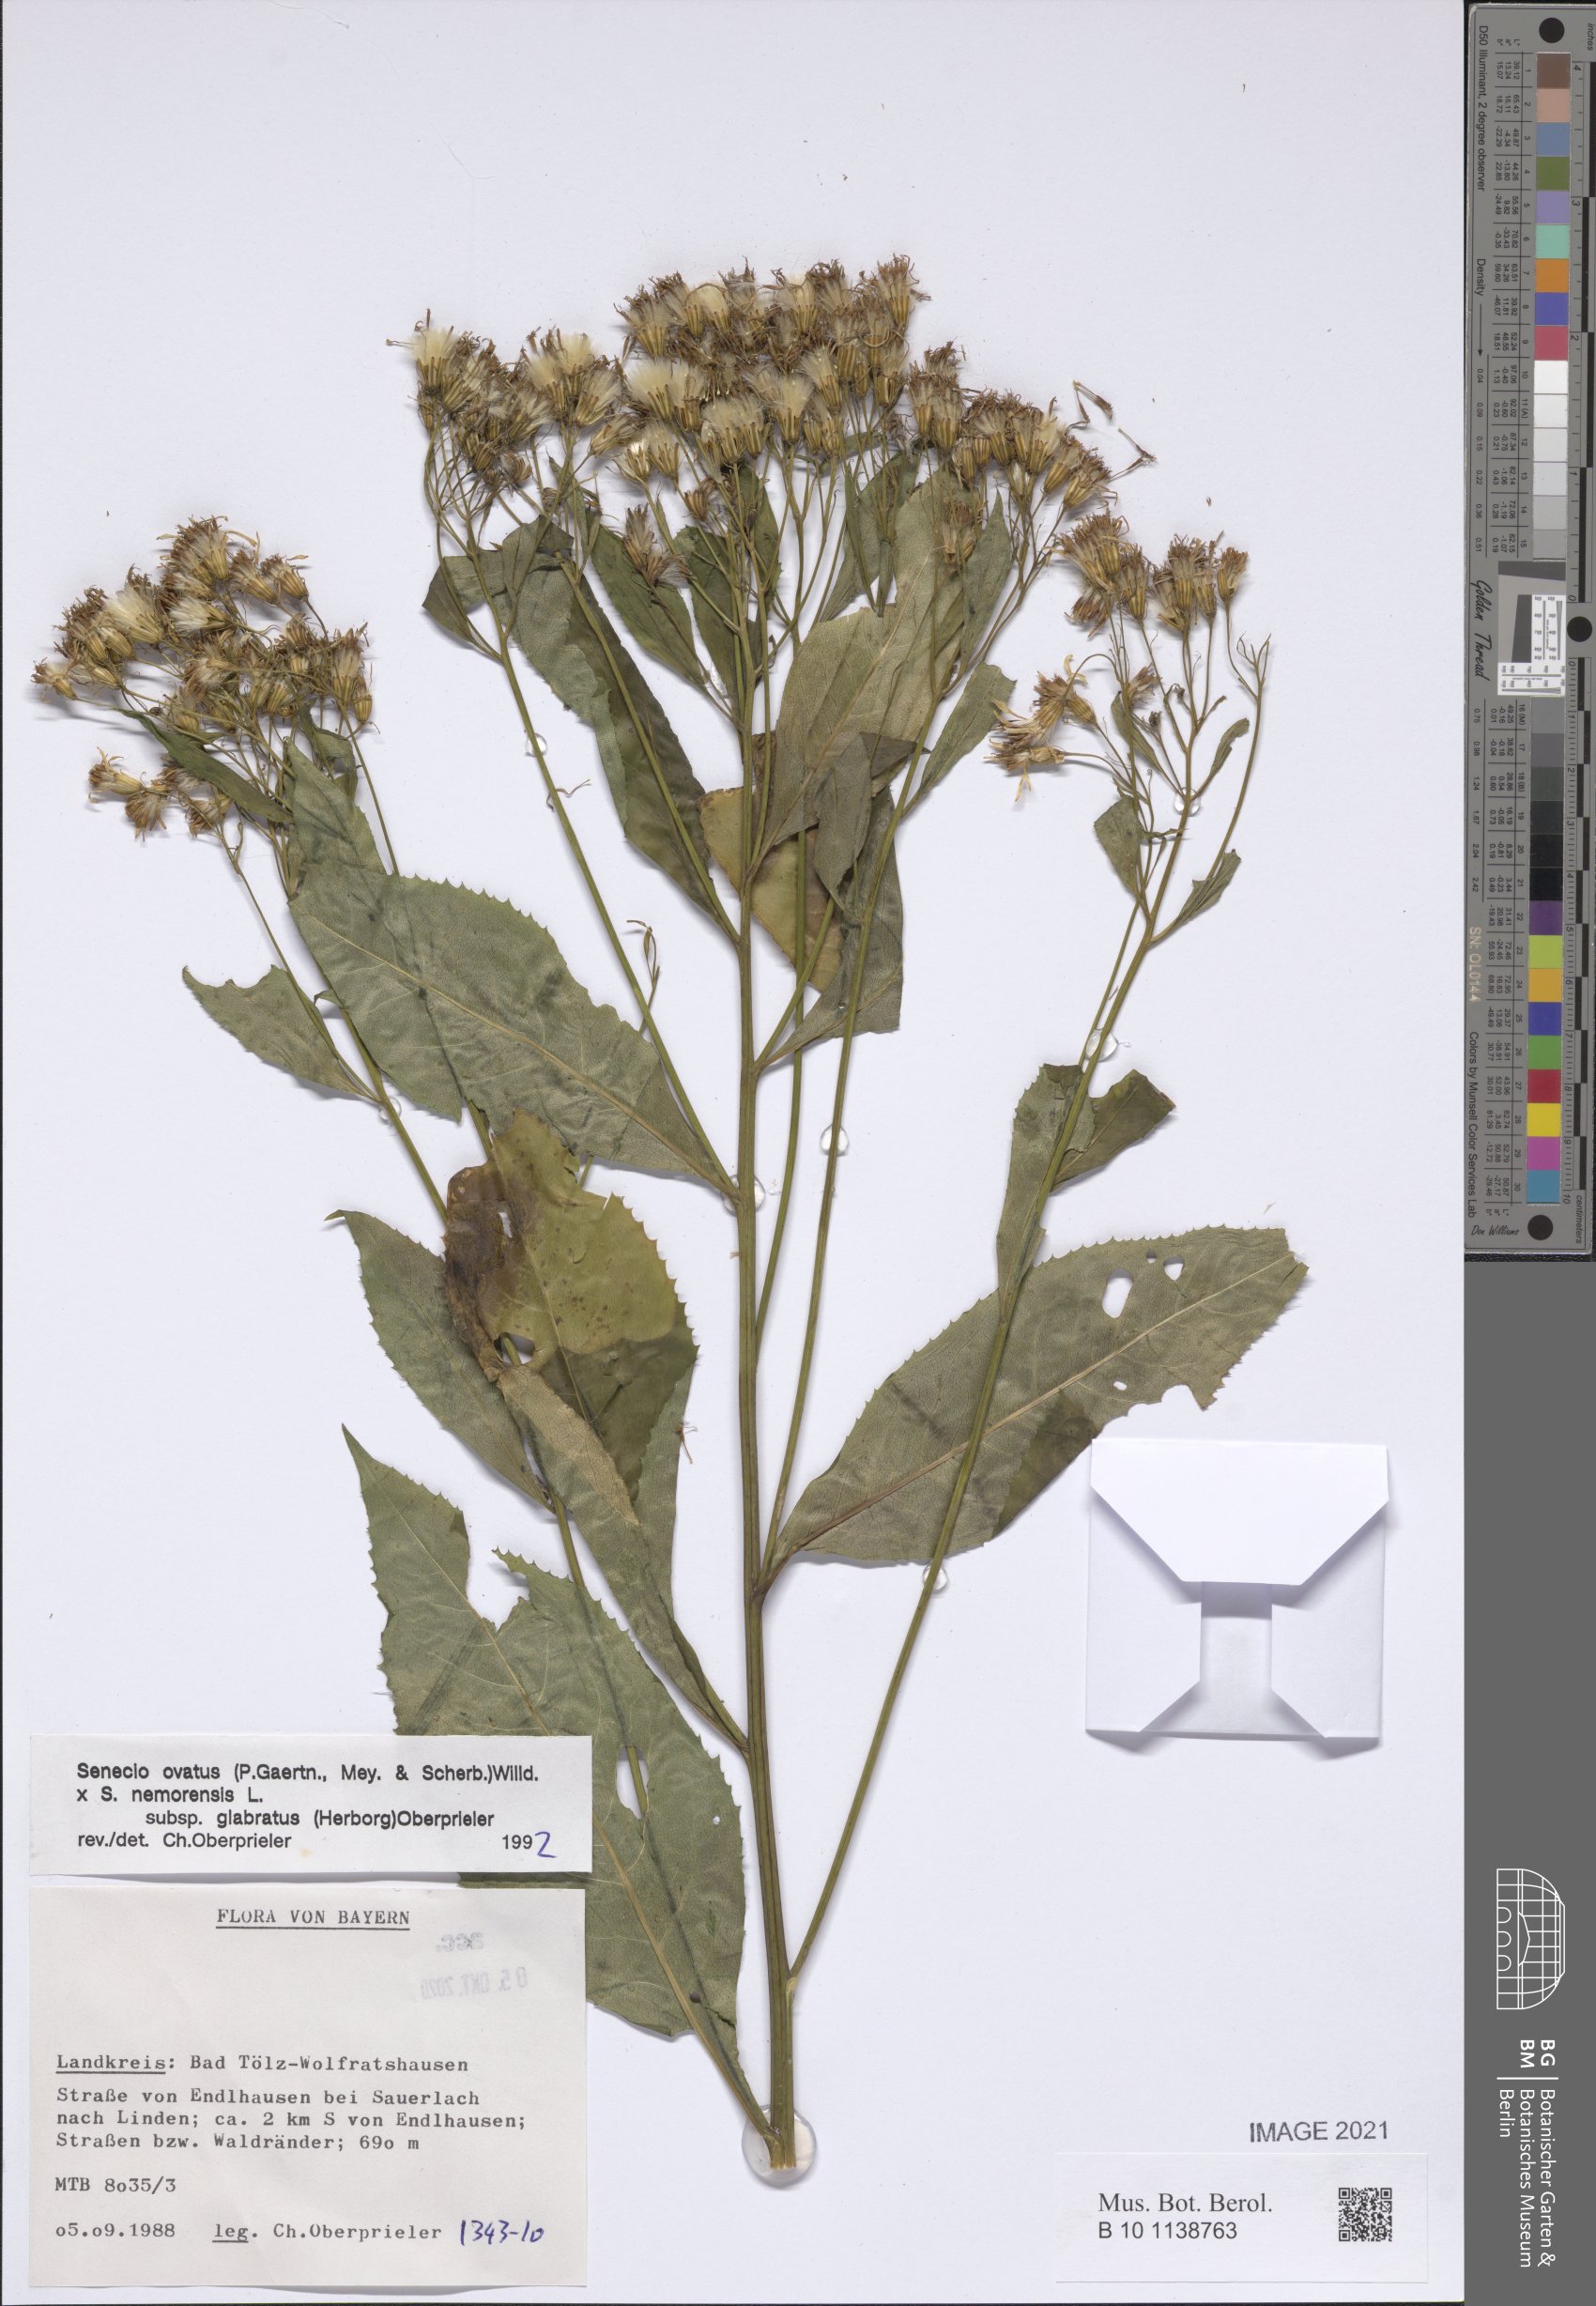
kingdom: Plantae
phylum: Tracheophyta
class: Magnoliopsida
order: Asterales
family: Asteraceae
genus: Senecio
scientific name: Senecio ovatus
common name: Wood ragwort
